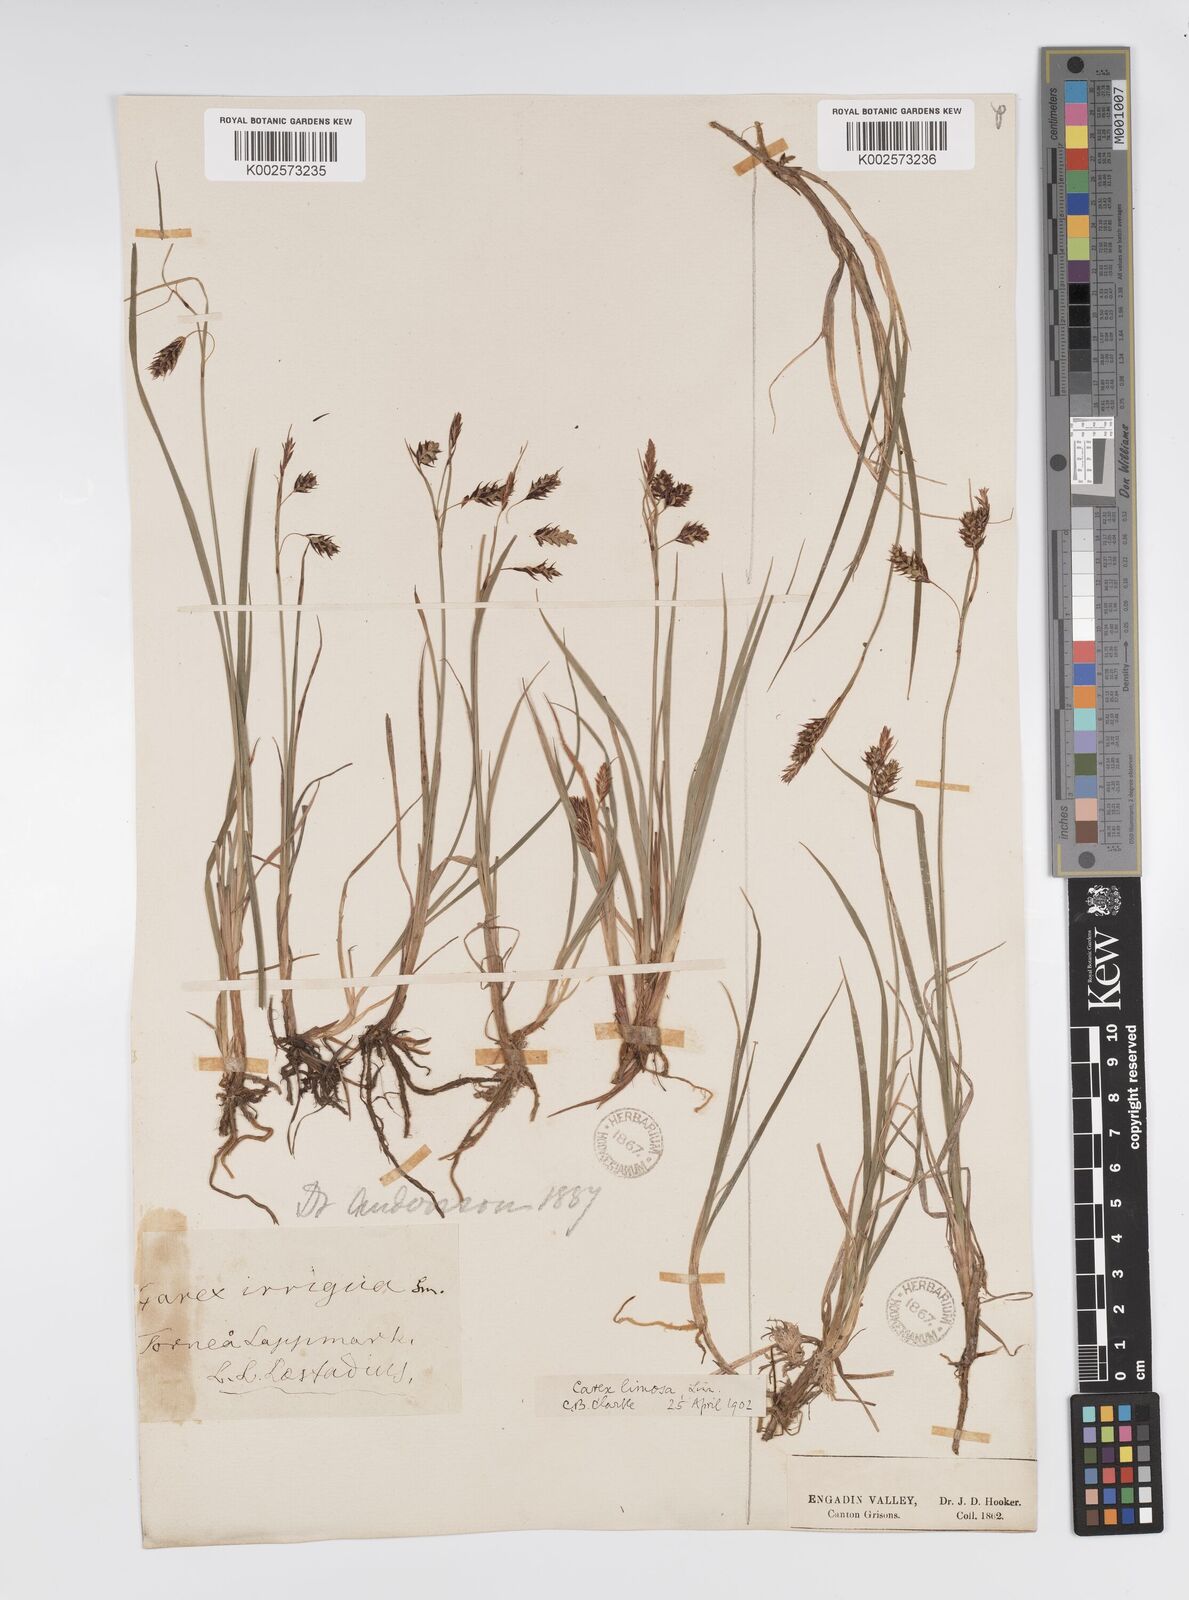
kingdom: Plantae
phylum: Tracheophyta
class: Liliopsida
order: Poales
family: Cyperaceae
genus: Carex
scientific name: Carex magellanica
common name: Bog sedge
